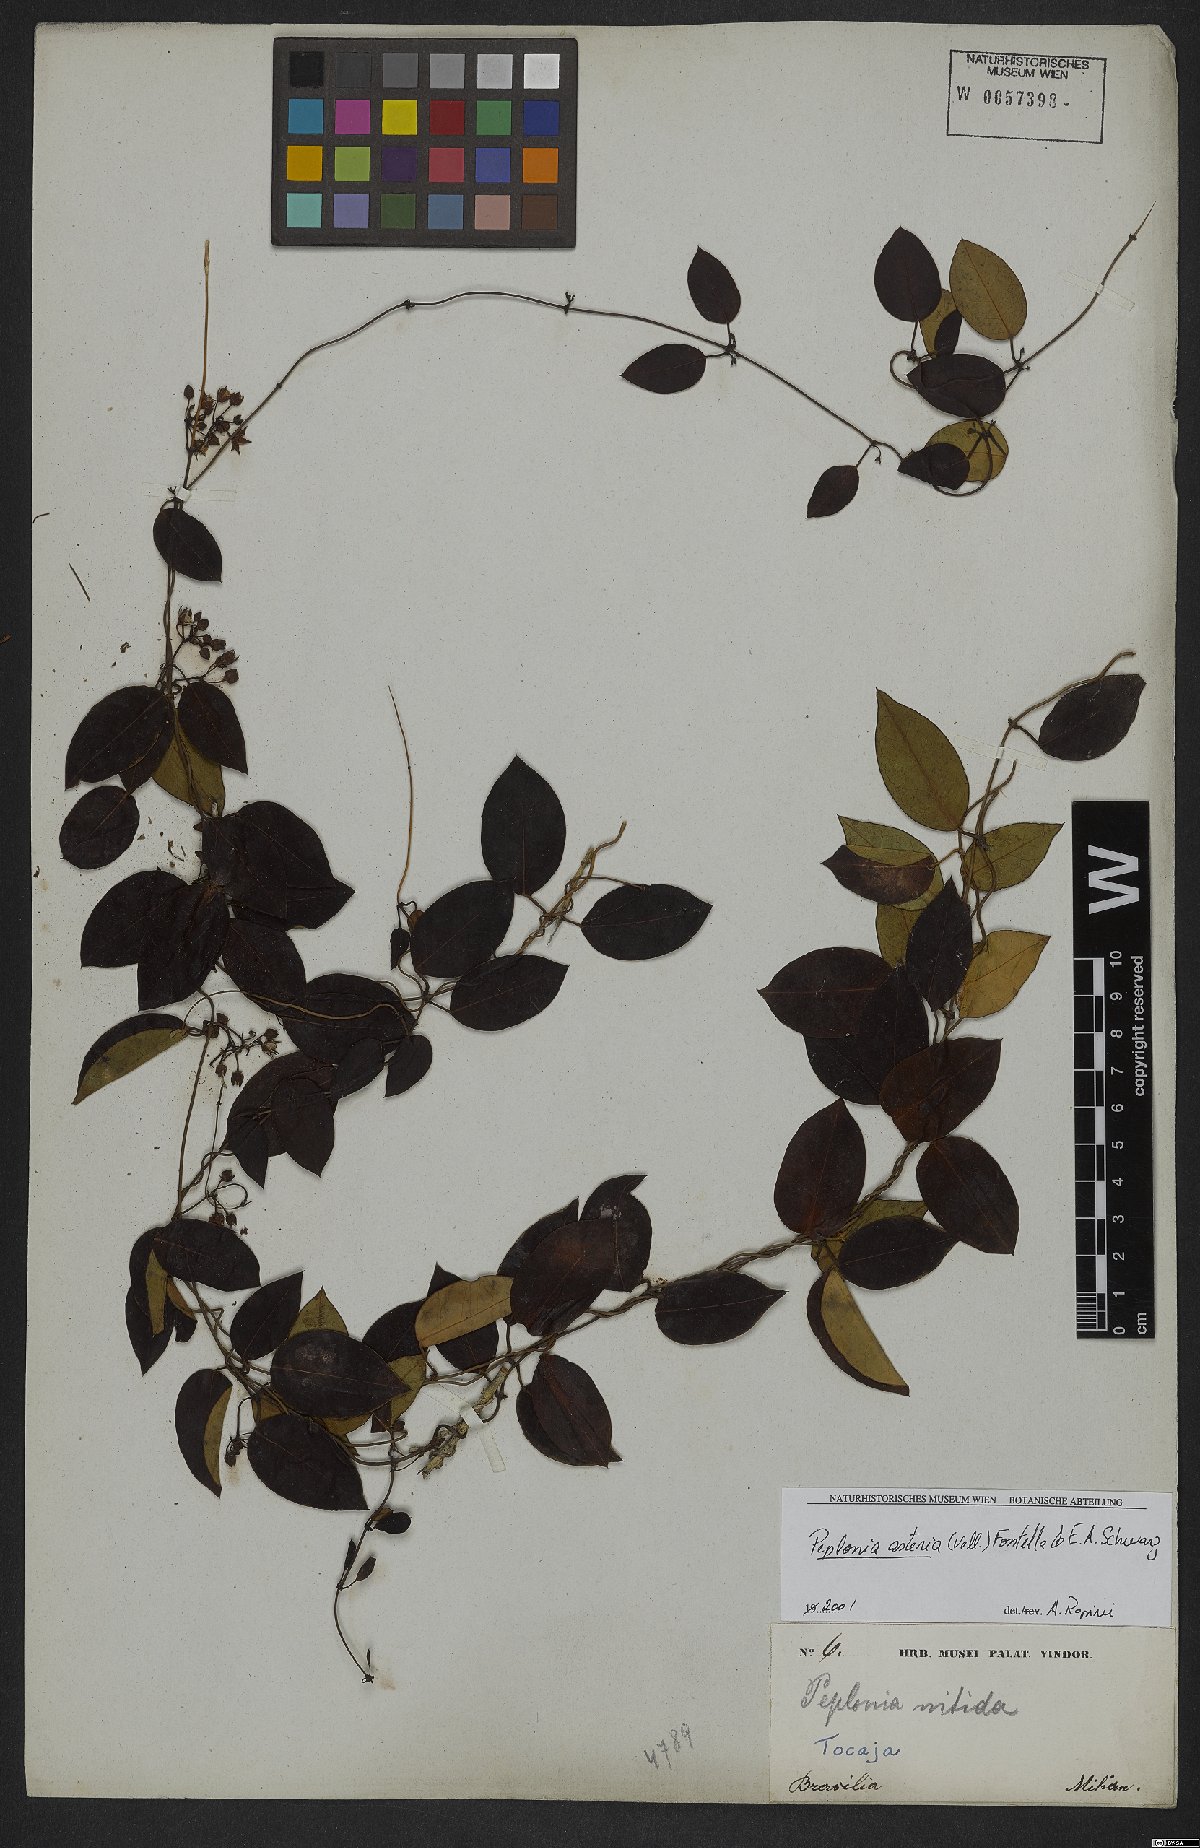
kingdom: Plantae
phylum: Tracheophyta
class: Magnoliopsida
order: Gentianales
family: Apocynaceae
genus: Peplonia
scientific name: Peplonia asteria
